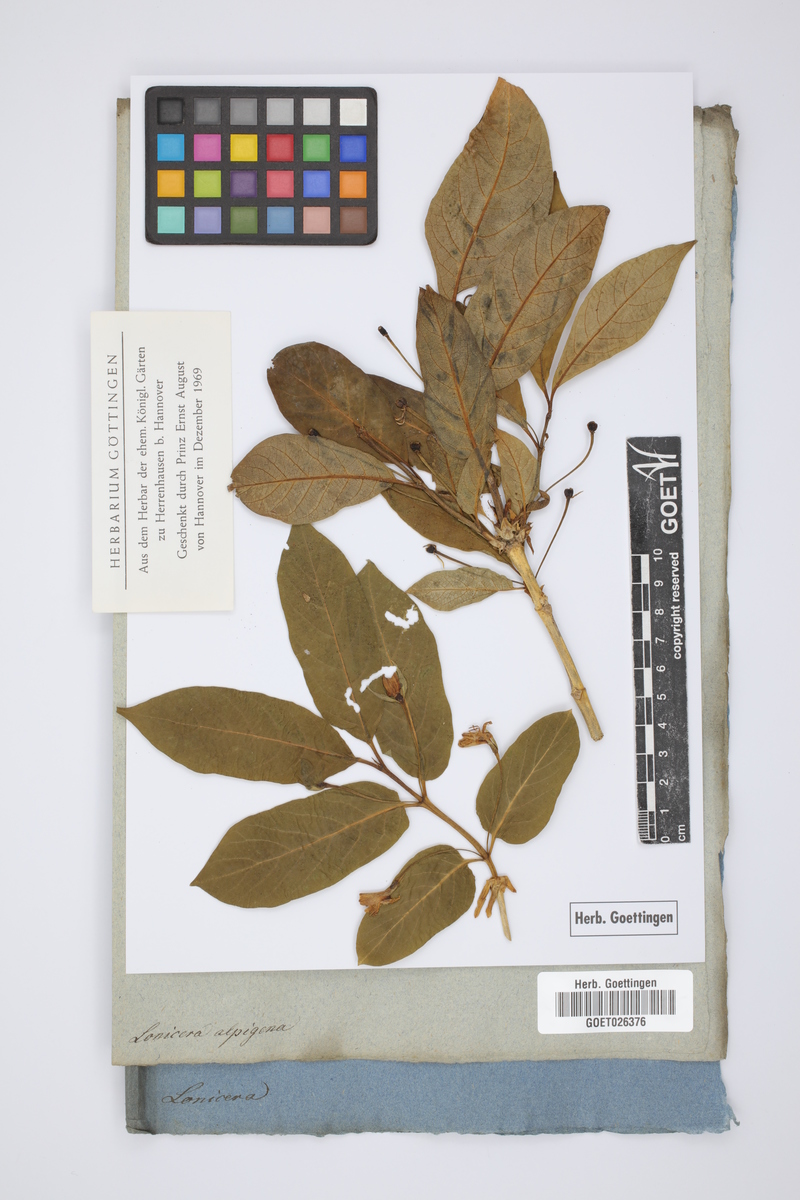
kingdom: Plantae
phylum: Tracheophyta
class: Magnoliopsida
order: Dipsacales
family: Caprifoliaceae
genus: Lonicera
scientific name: Lonicera alpigena
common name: Alpine honeysuckle
